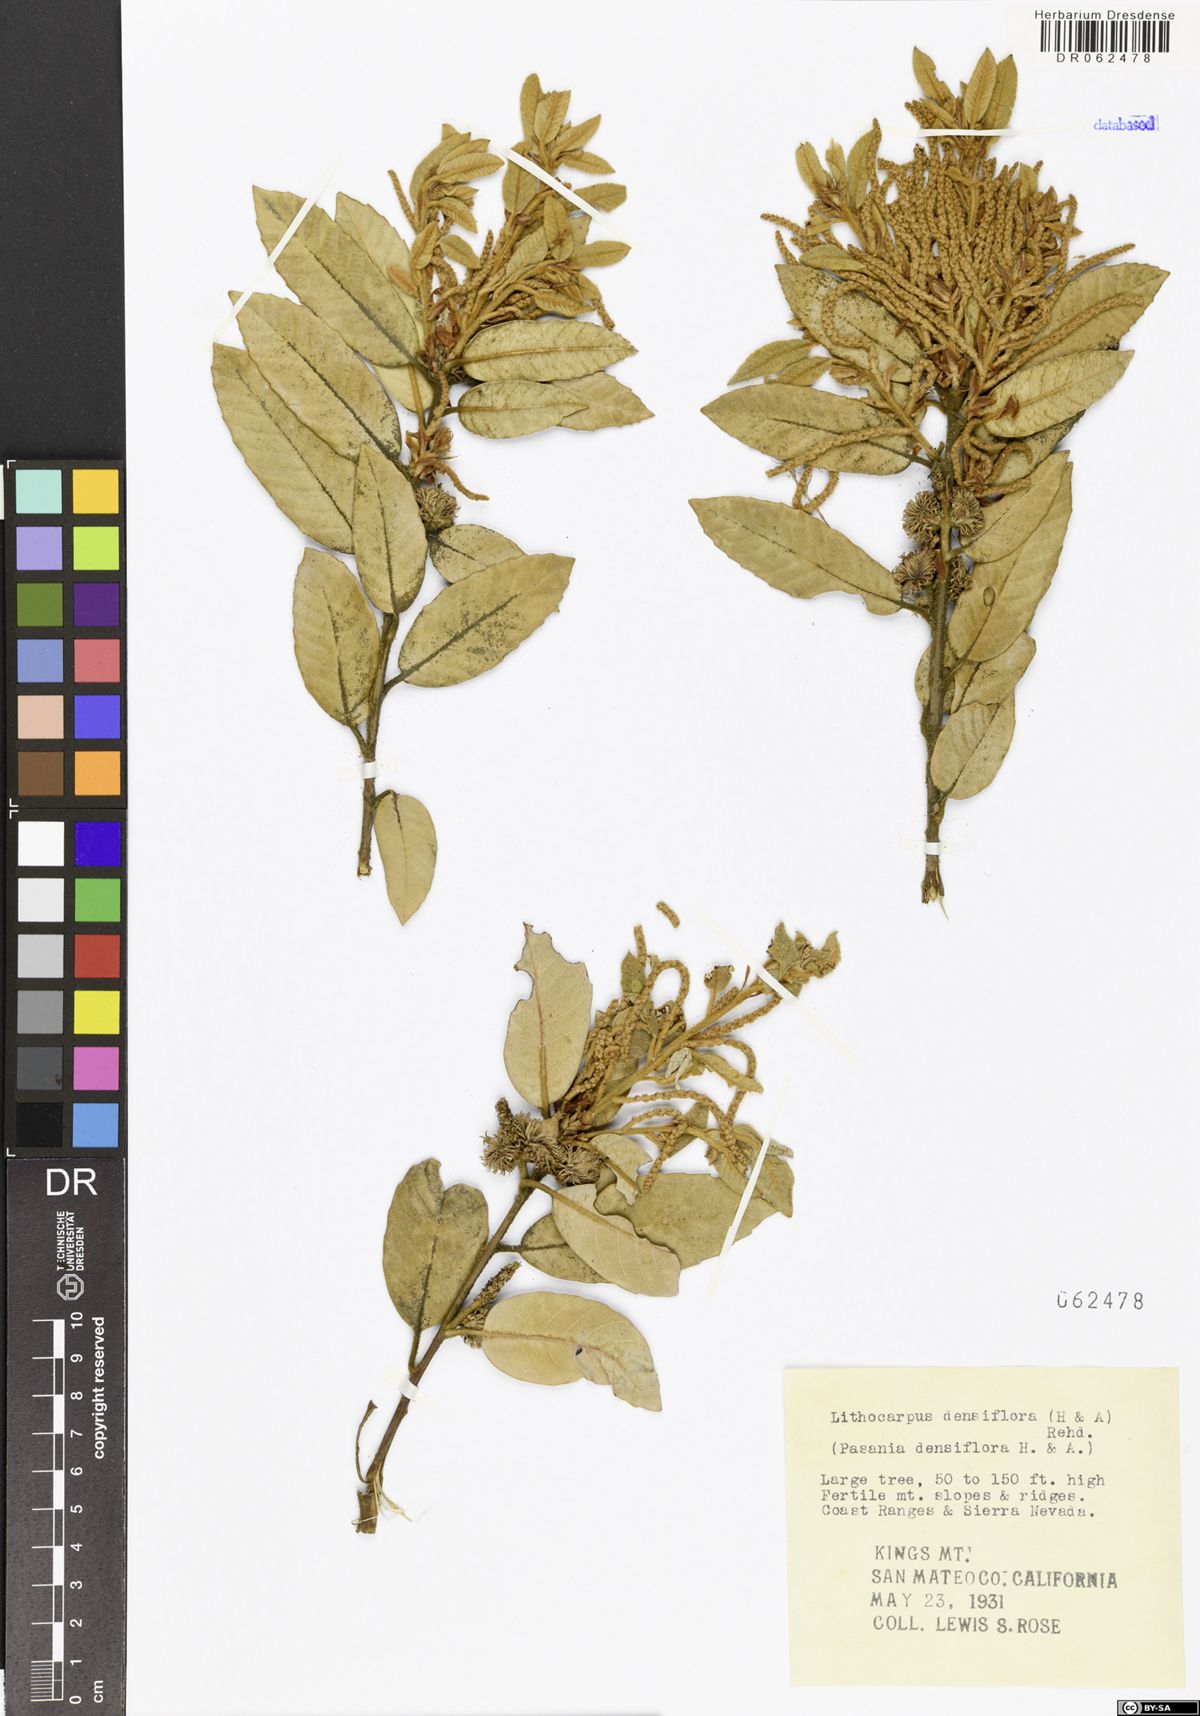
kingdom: Plantae
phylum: Tracheophyta
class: Magnoliopsida
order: Fagales
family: Fagaceae
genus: Notholithocarpus
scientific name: Notholithocarpus densiflorus
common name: Tan bark oak
